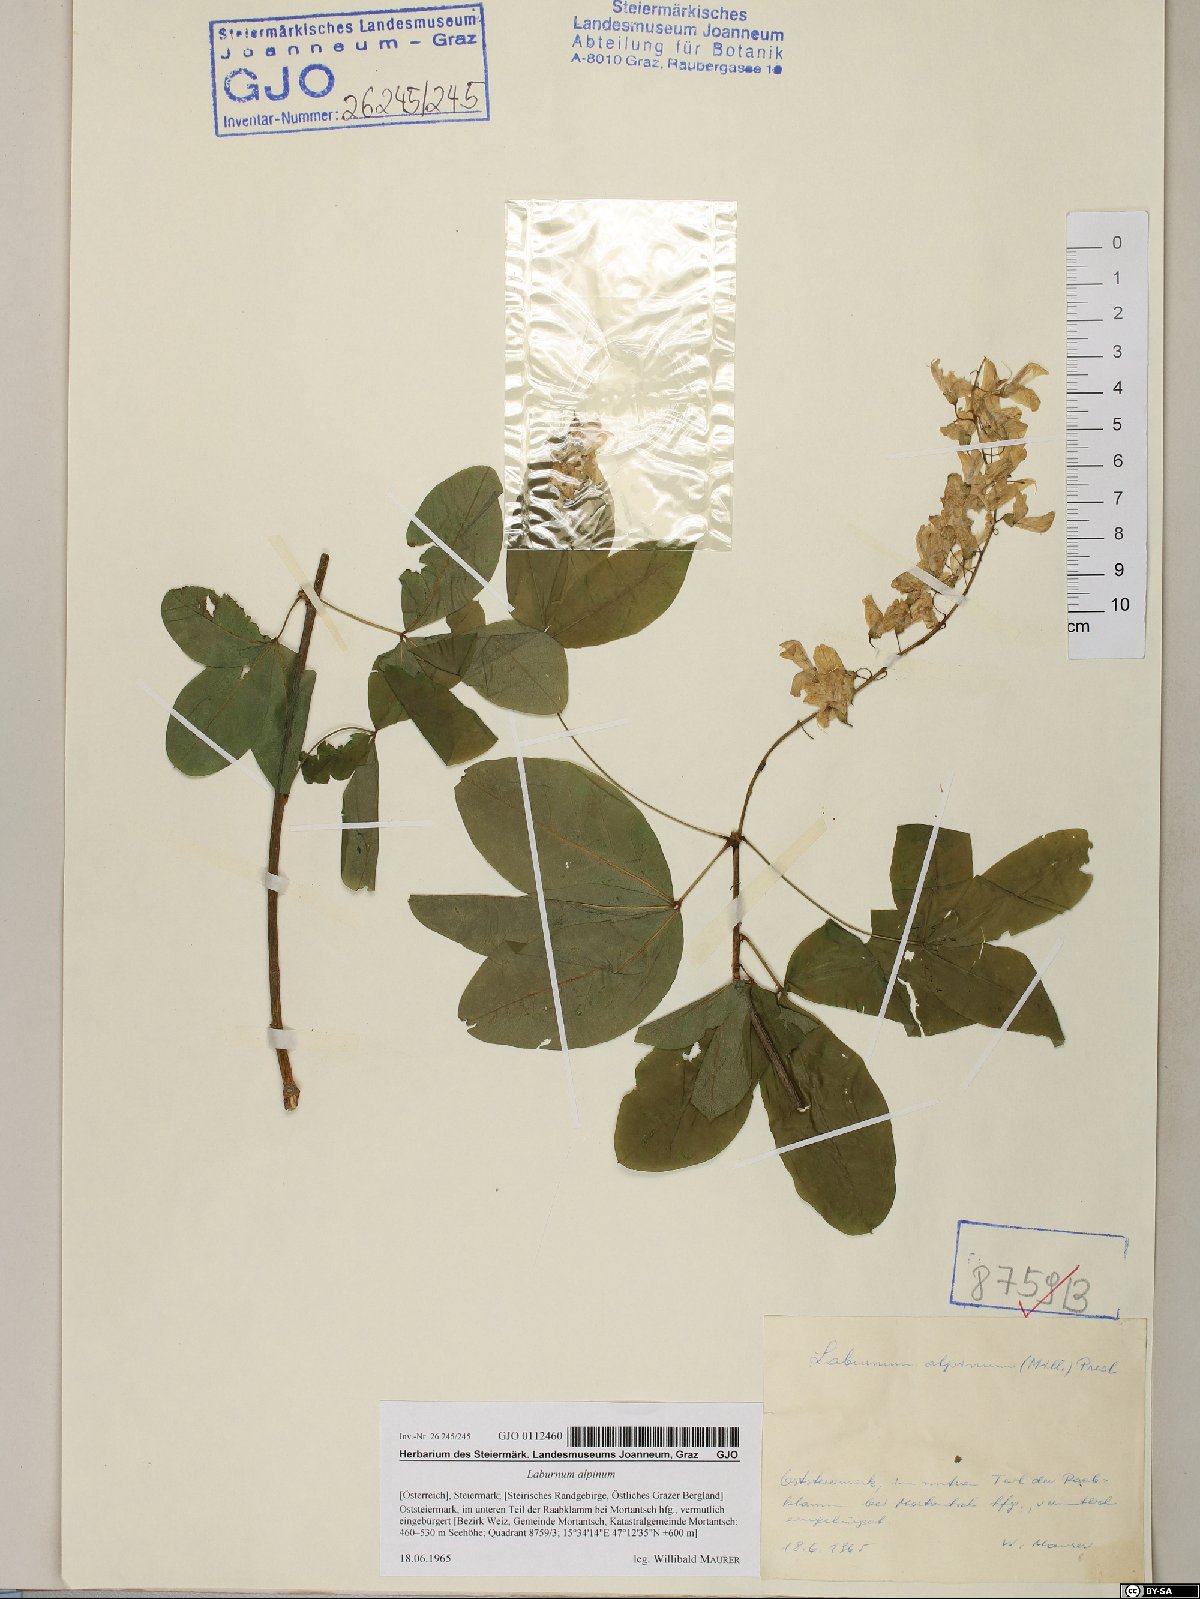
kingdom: Plantae
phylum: Tracheophyta
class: Magnoliopsida
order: Fabales
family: Fabaceae
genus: Laburnum
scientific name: Laburnum alpinum
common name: Scottish laburnum
